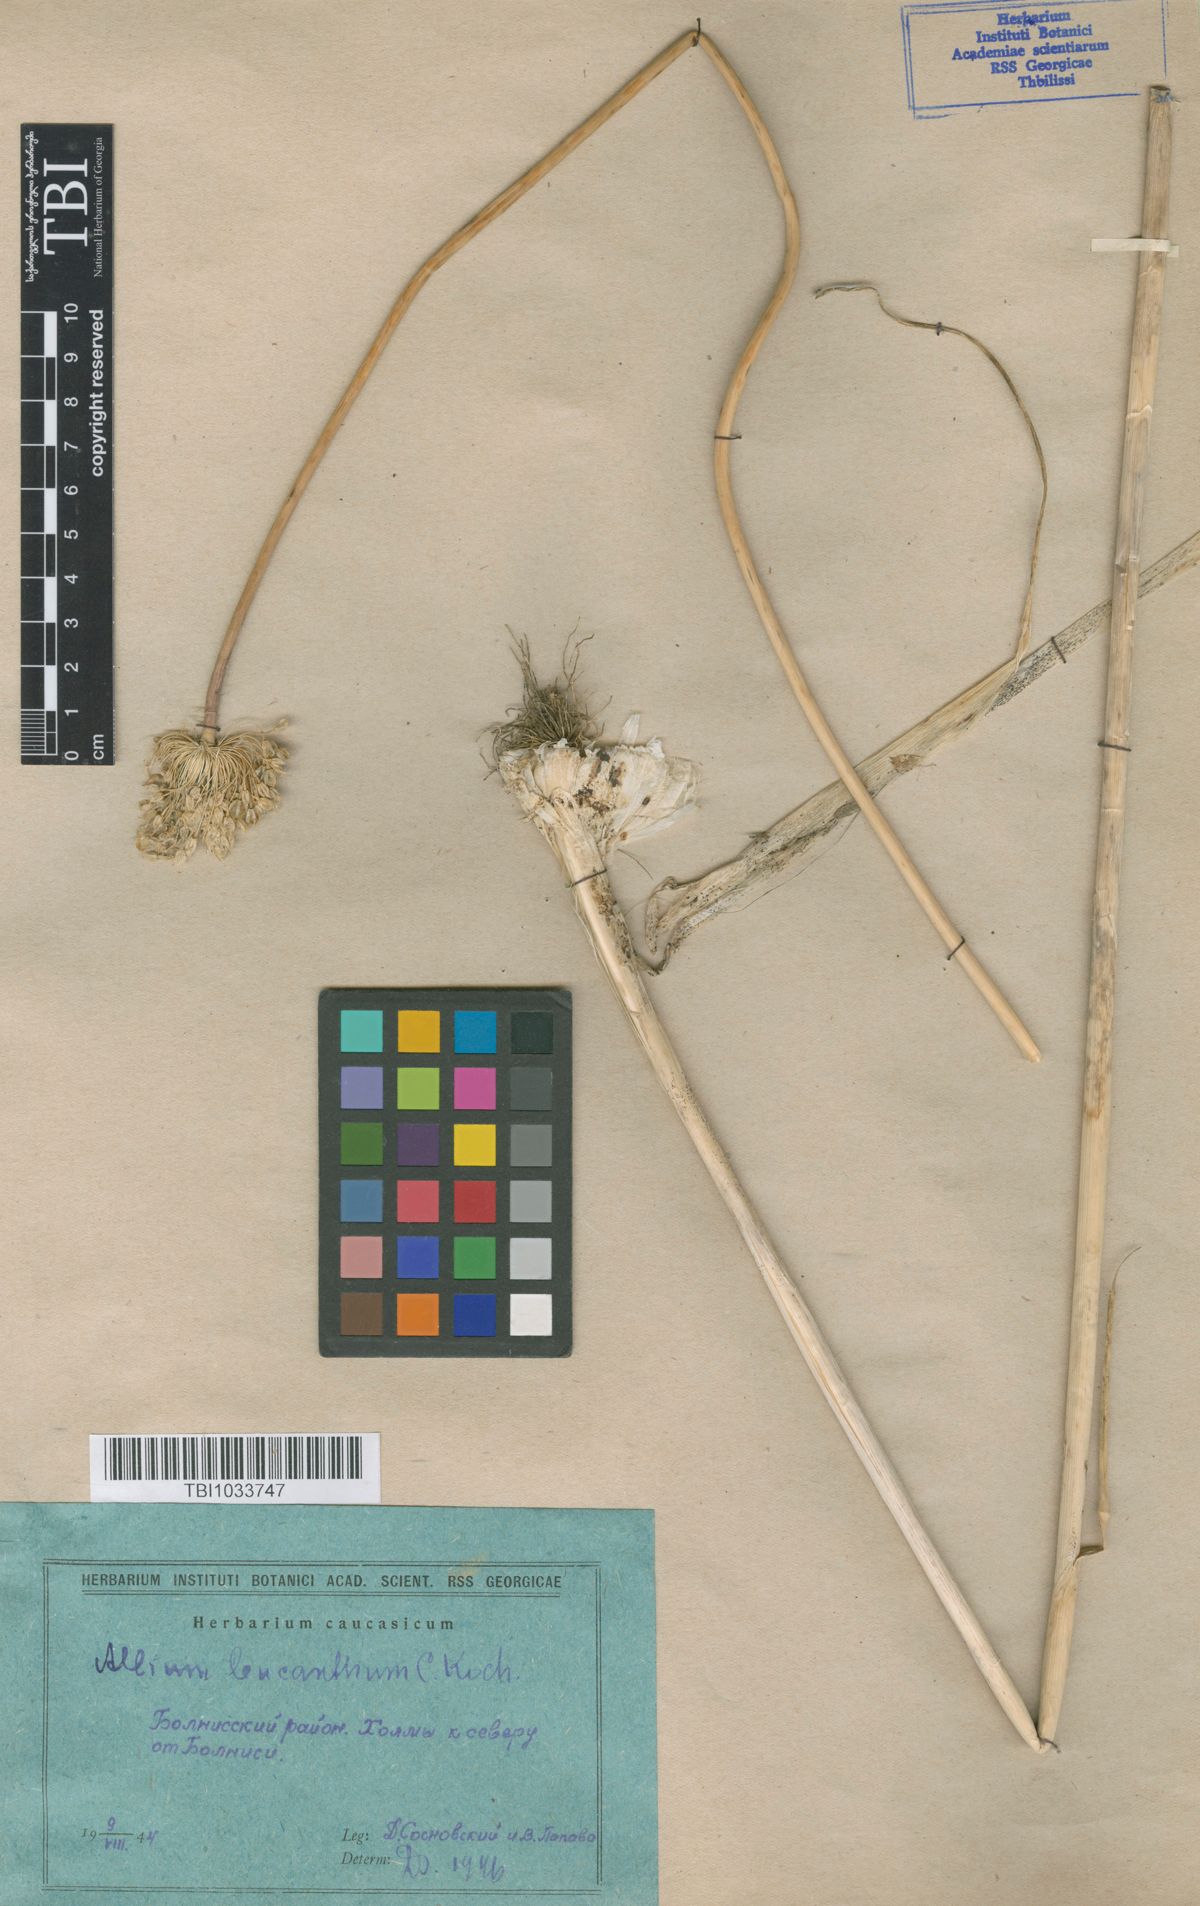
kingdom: Plantae
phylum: Tracheophyta
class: Liliopsida
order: Asparagales
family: Amaryllidaceae
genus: Allium
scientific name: Allium ampeloprasum
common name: Wild leek
